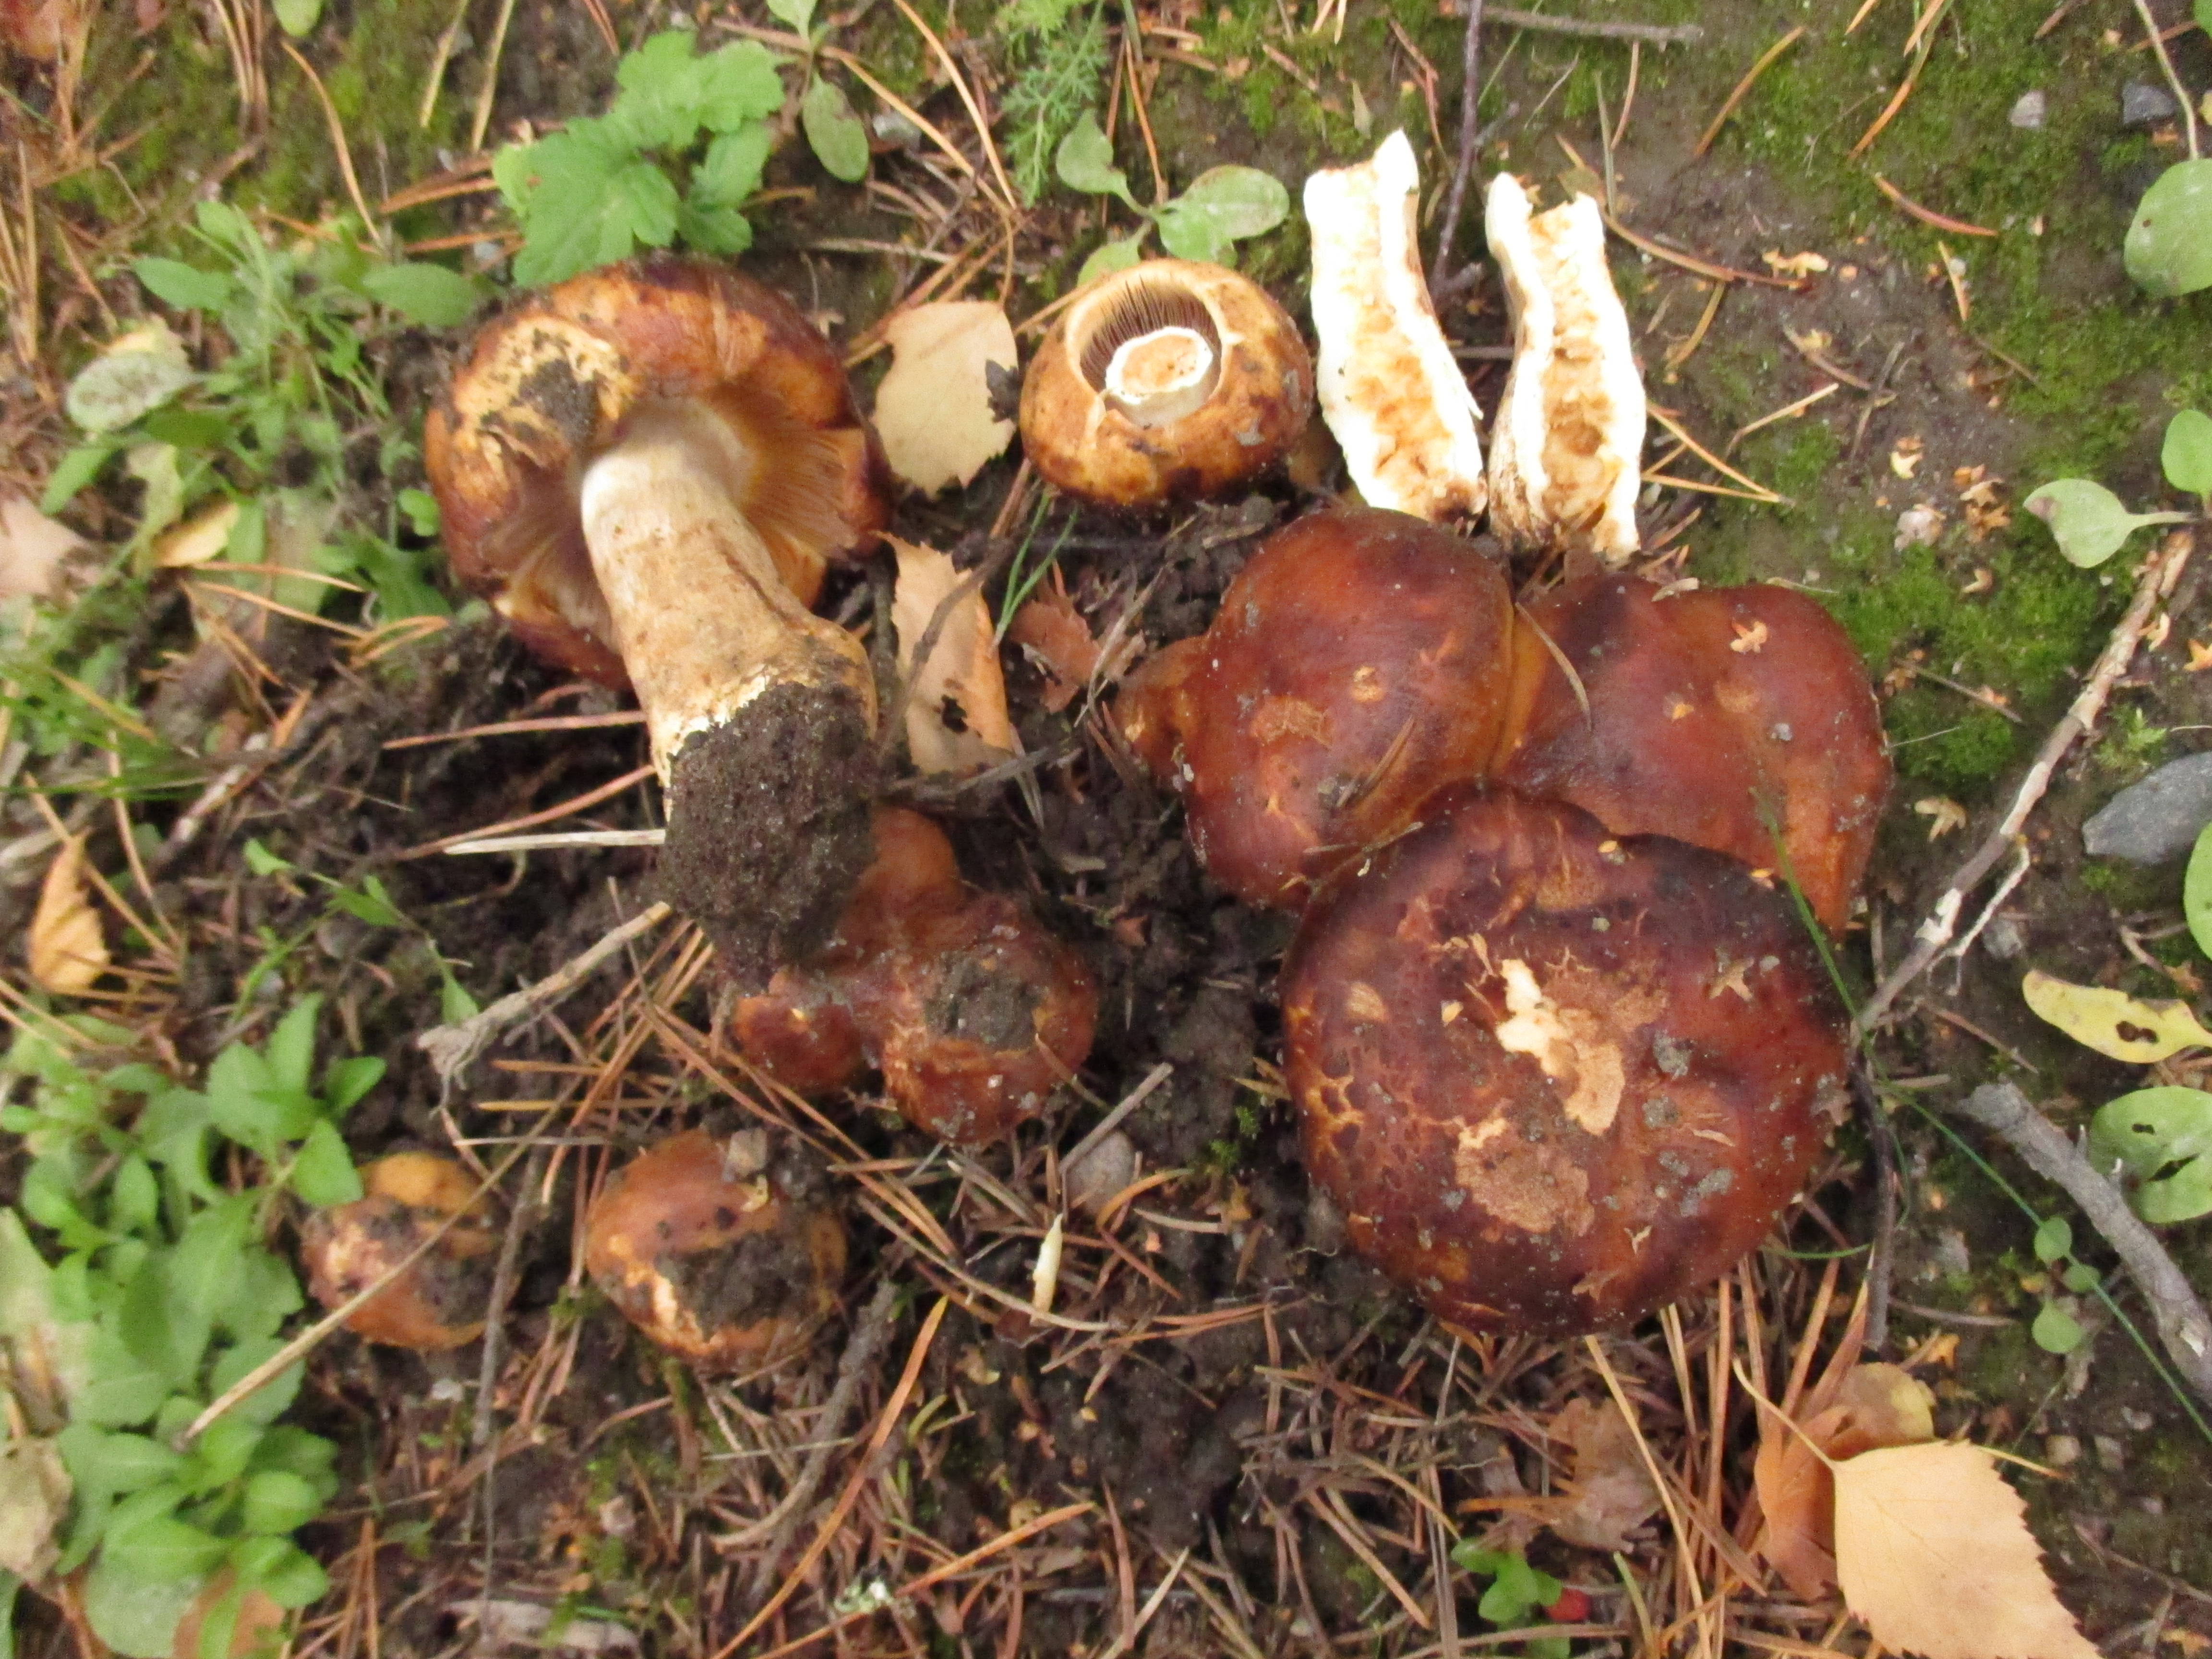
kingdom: Fungi
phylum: Basidiomycota
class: Agaricomycetes
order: Russulales
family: Russulaceae
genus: Russula
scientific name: Russula foetens
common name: Foetid russula
